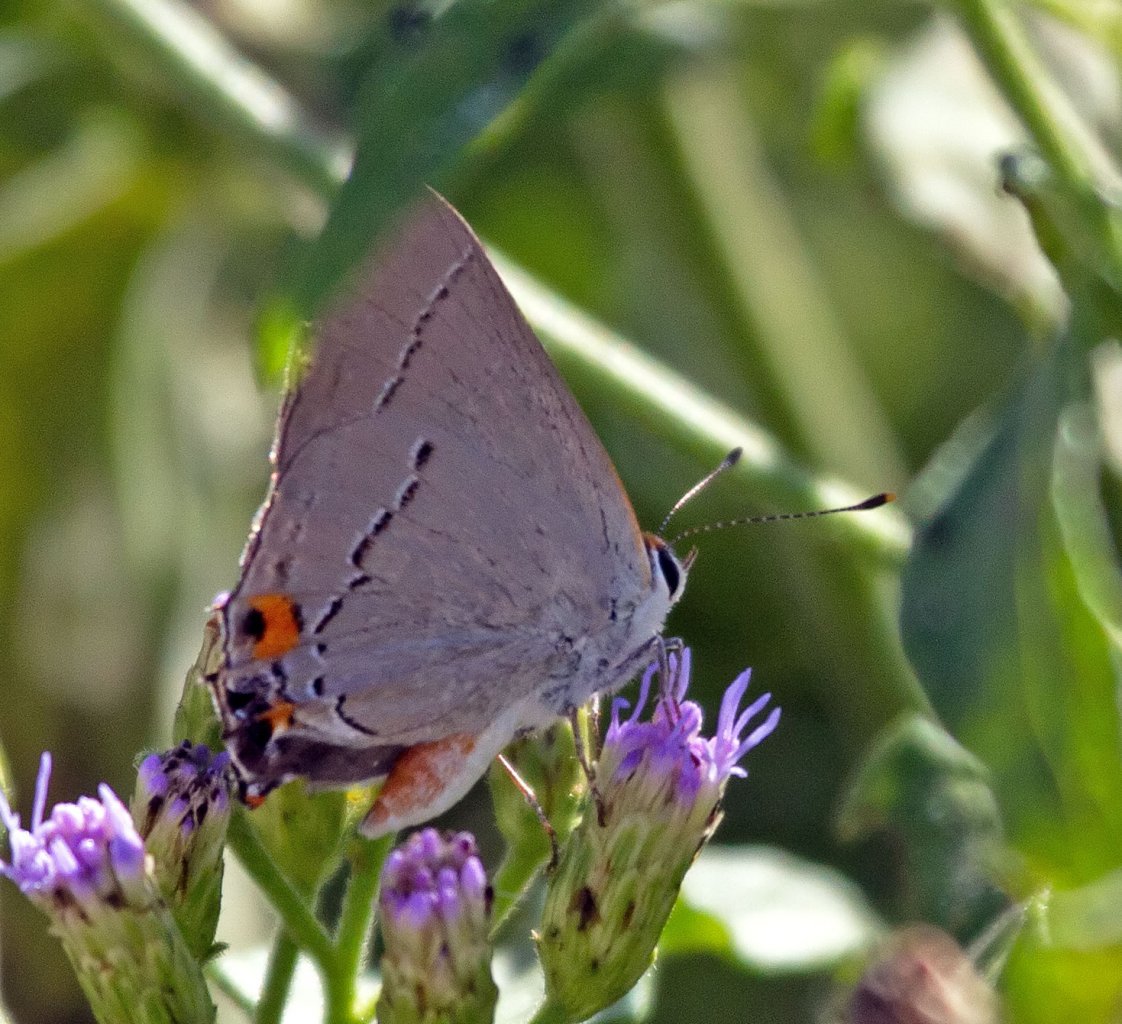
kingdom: Animalia
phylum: Arthropoda
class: Insecta
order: Lepidoptera
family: Lycaenidae
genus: Strymon
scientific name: Strymon melinus
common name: Gray Hairstreak
